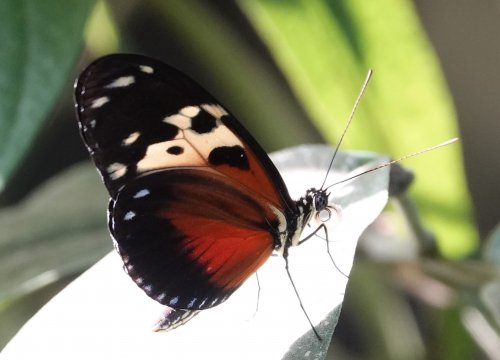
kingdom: Animalia
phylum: Arthropoda
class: Insecta
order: Lepidoptera
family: Nymphalidae
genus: Heliconius
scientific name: Heliconius hecale
